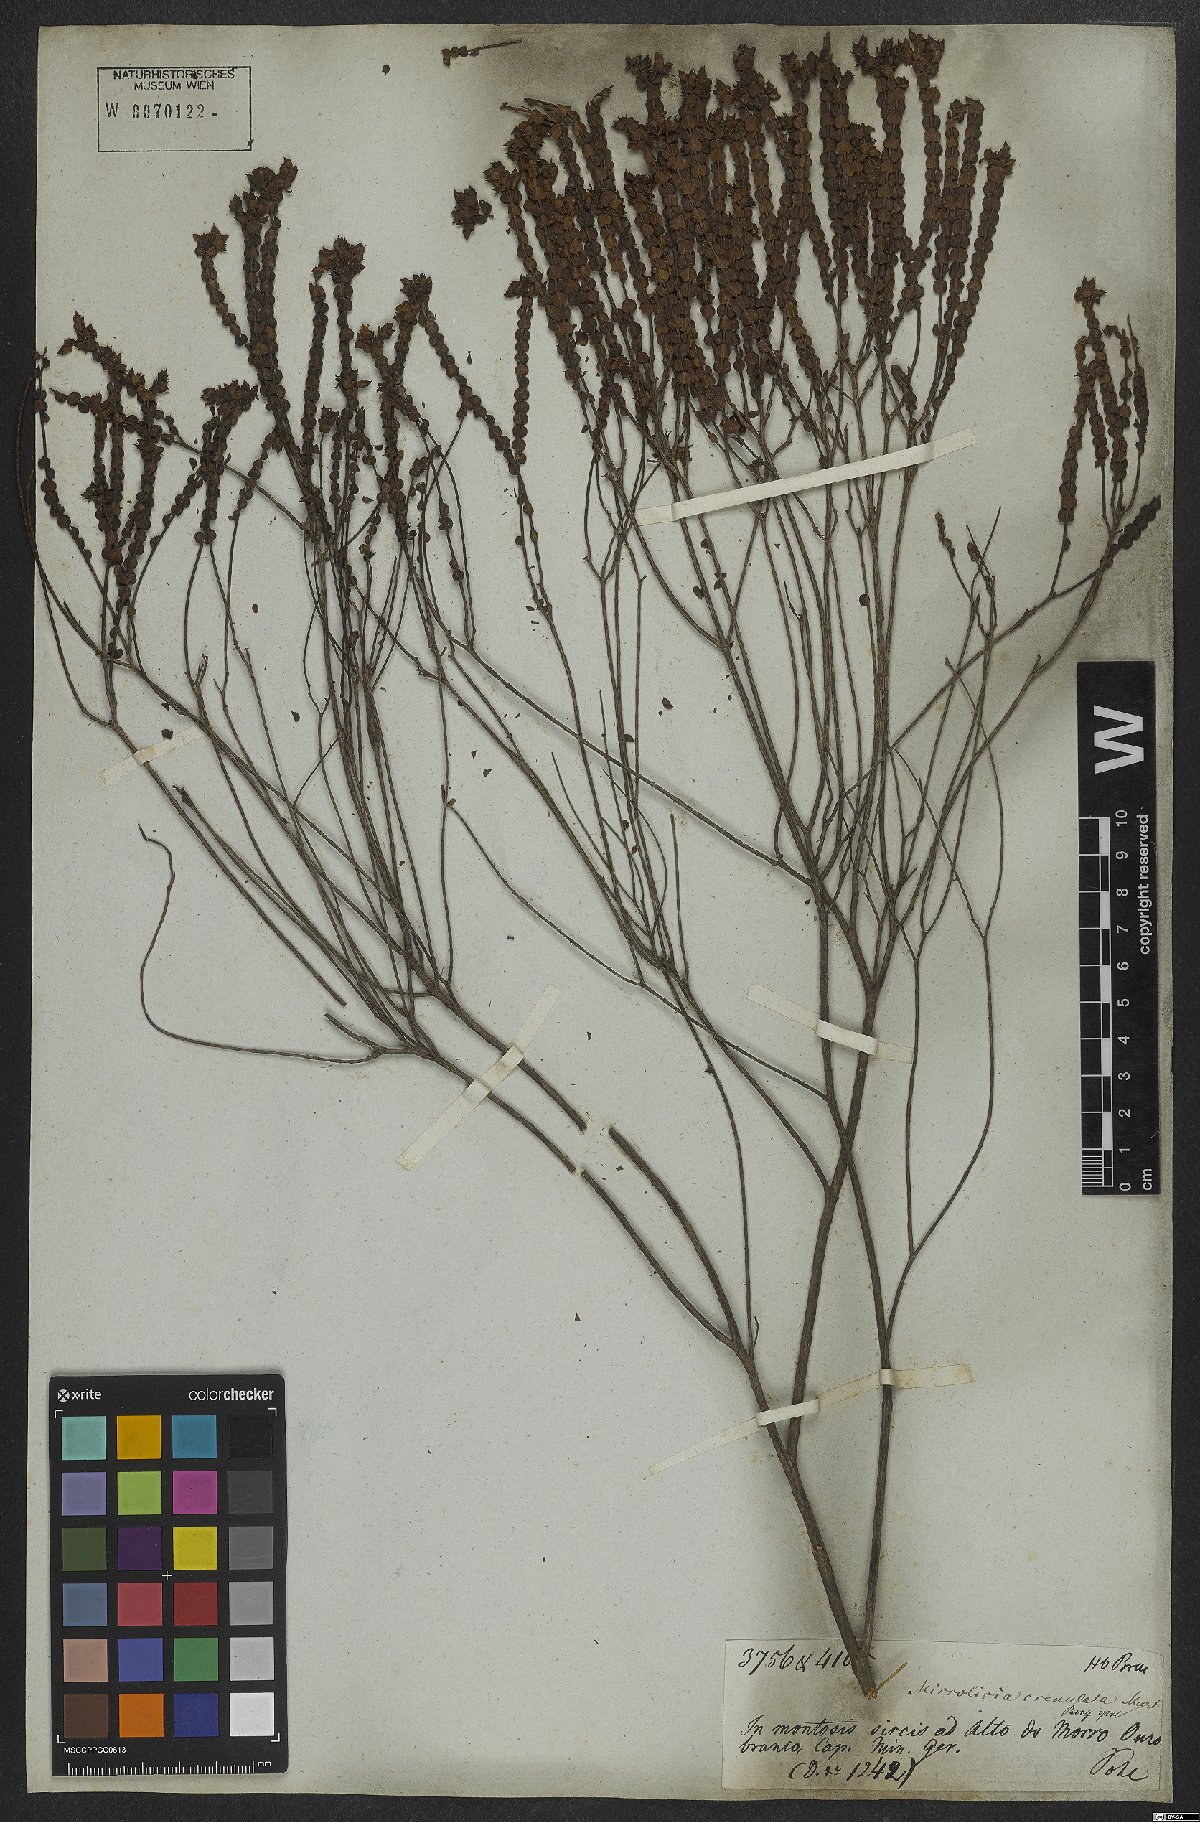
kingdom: Plantae
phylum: Tracheophyta
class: Magnoliopsida
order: Myrtales
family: Melastomataceae
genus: Microlicia
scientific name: Microlicia crenulata
